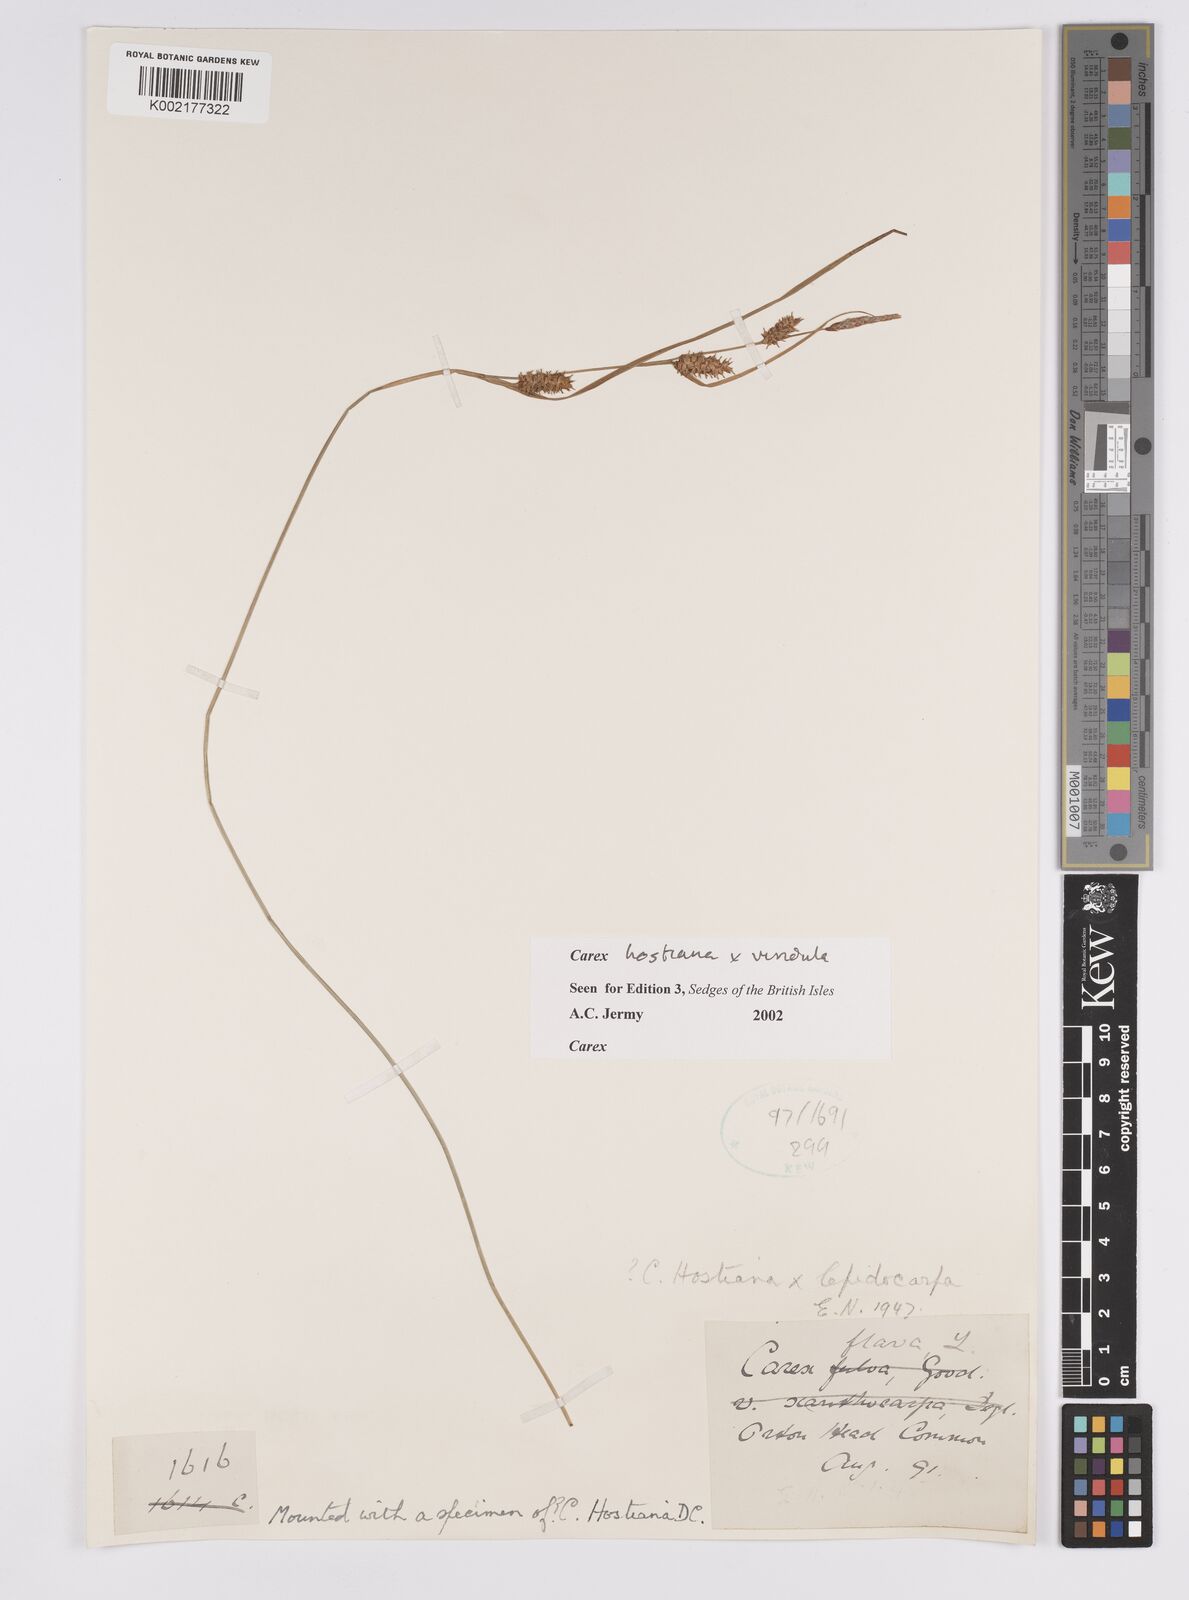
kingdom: Plantae
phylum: Tracheophyta
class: Liliopsida
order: Poales
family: Cyperaceae
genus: Carex
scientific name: Carex hostiana
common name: Tawny sedge
